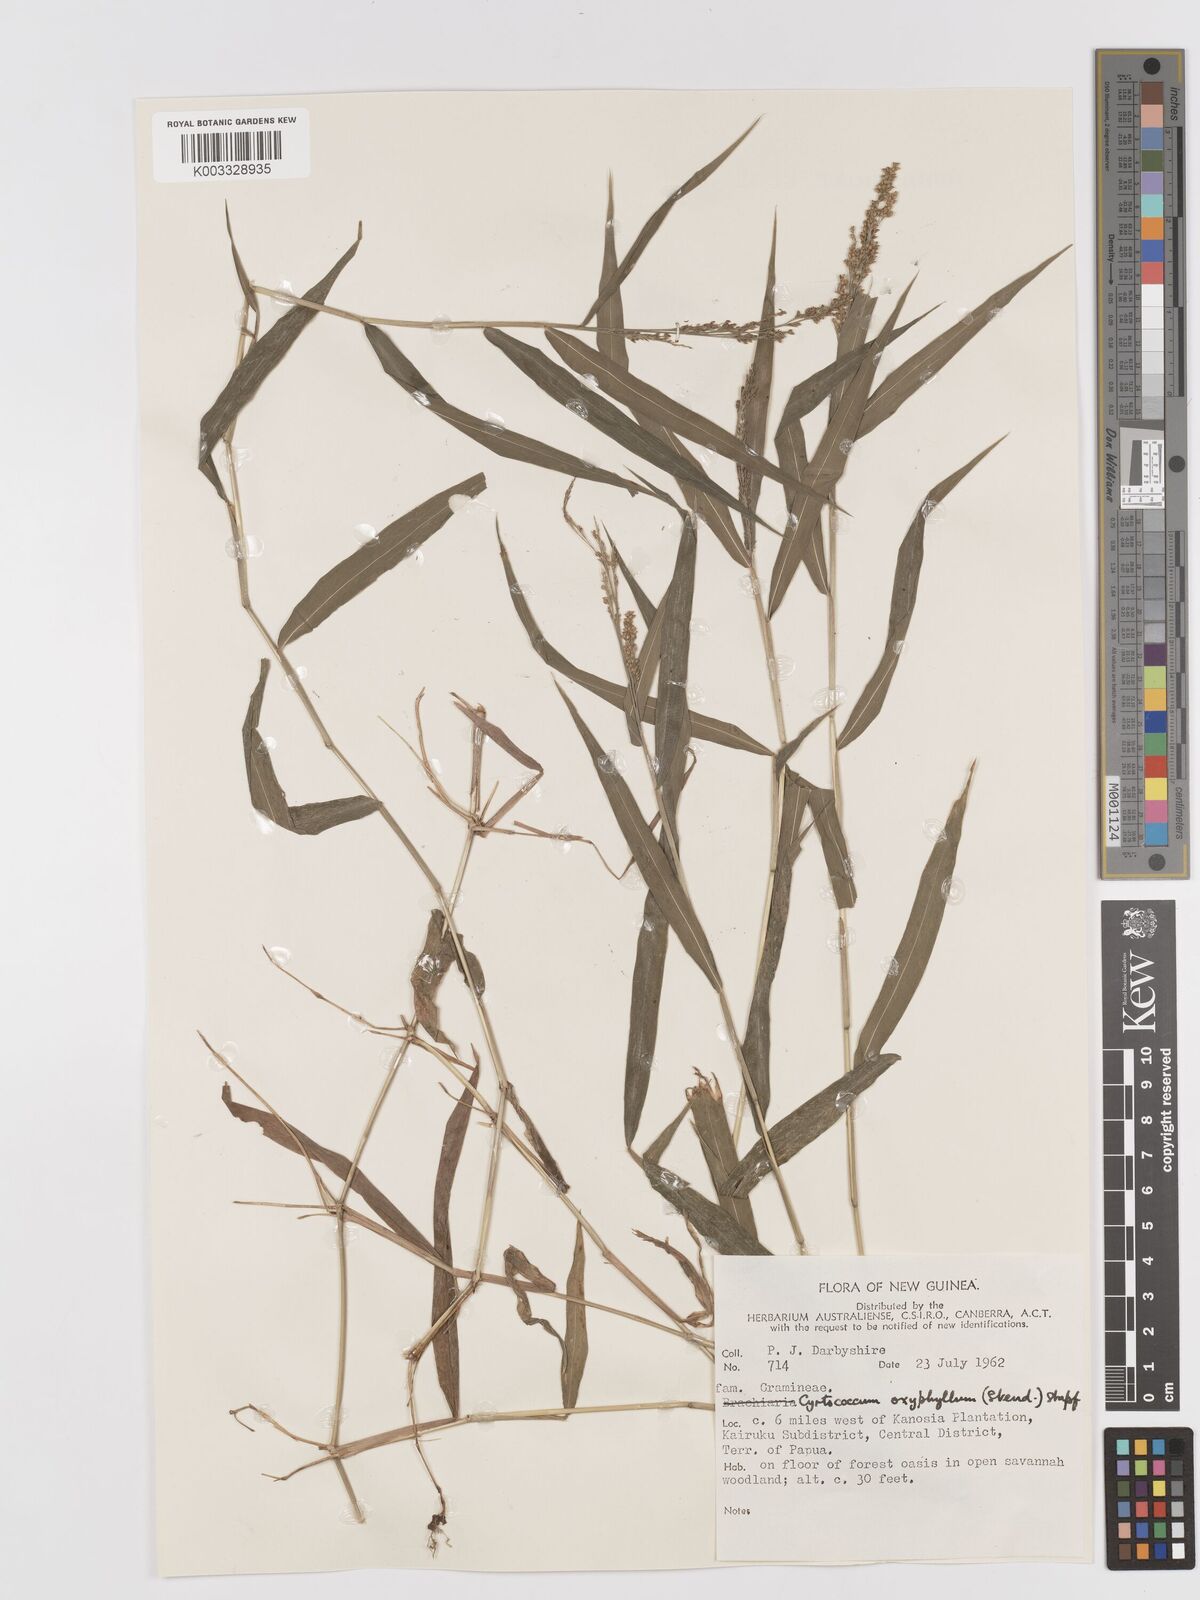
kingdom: Plantae
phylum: Tracheophyta
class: Liliopsida
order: Poales
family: Poaceae
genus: Cyrtococcum
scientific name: Cyrtococcum oxyphyllum
